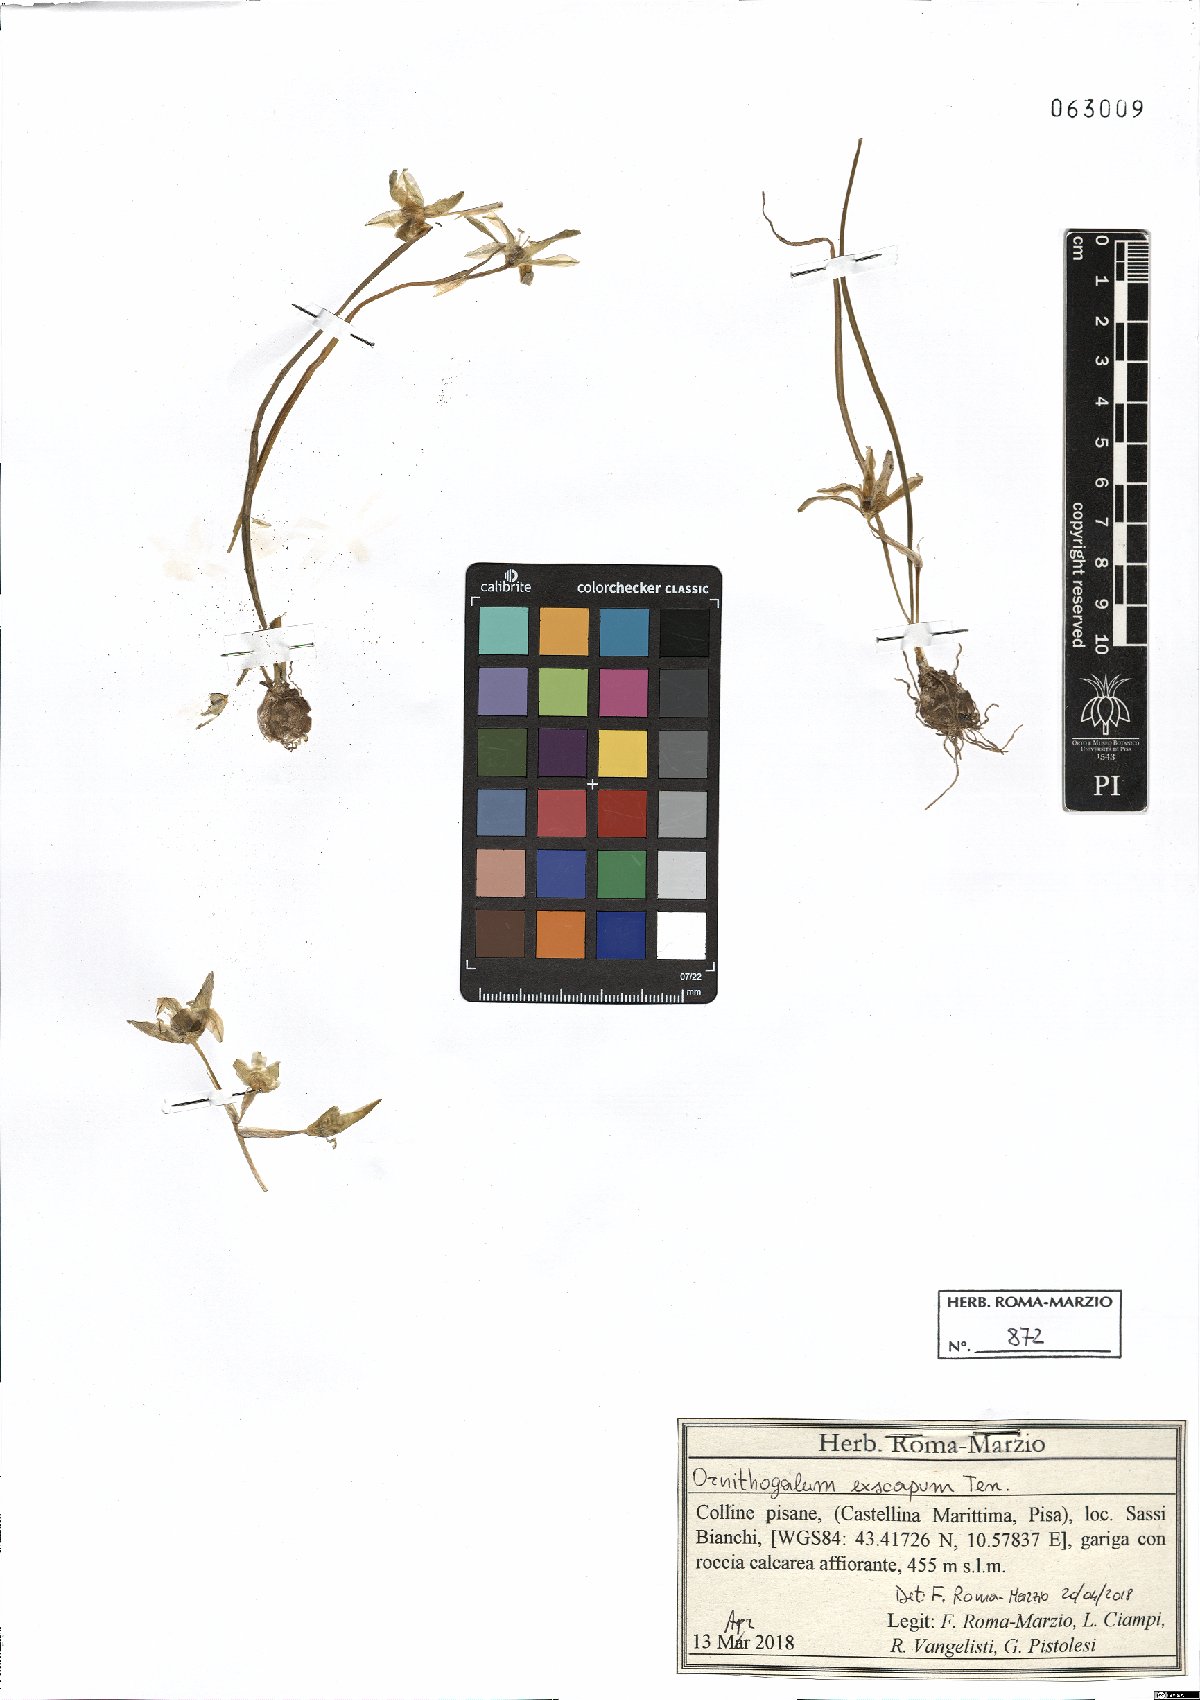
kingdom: Plantae
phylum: Tracheophyta
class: Liliopsida
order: Asparagales
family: Asparagaceae
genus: Ornithogalum
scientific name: Ornithogalum exscapum
